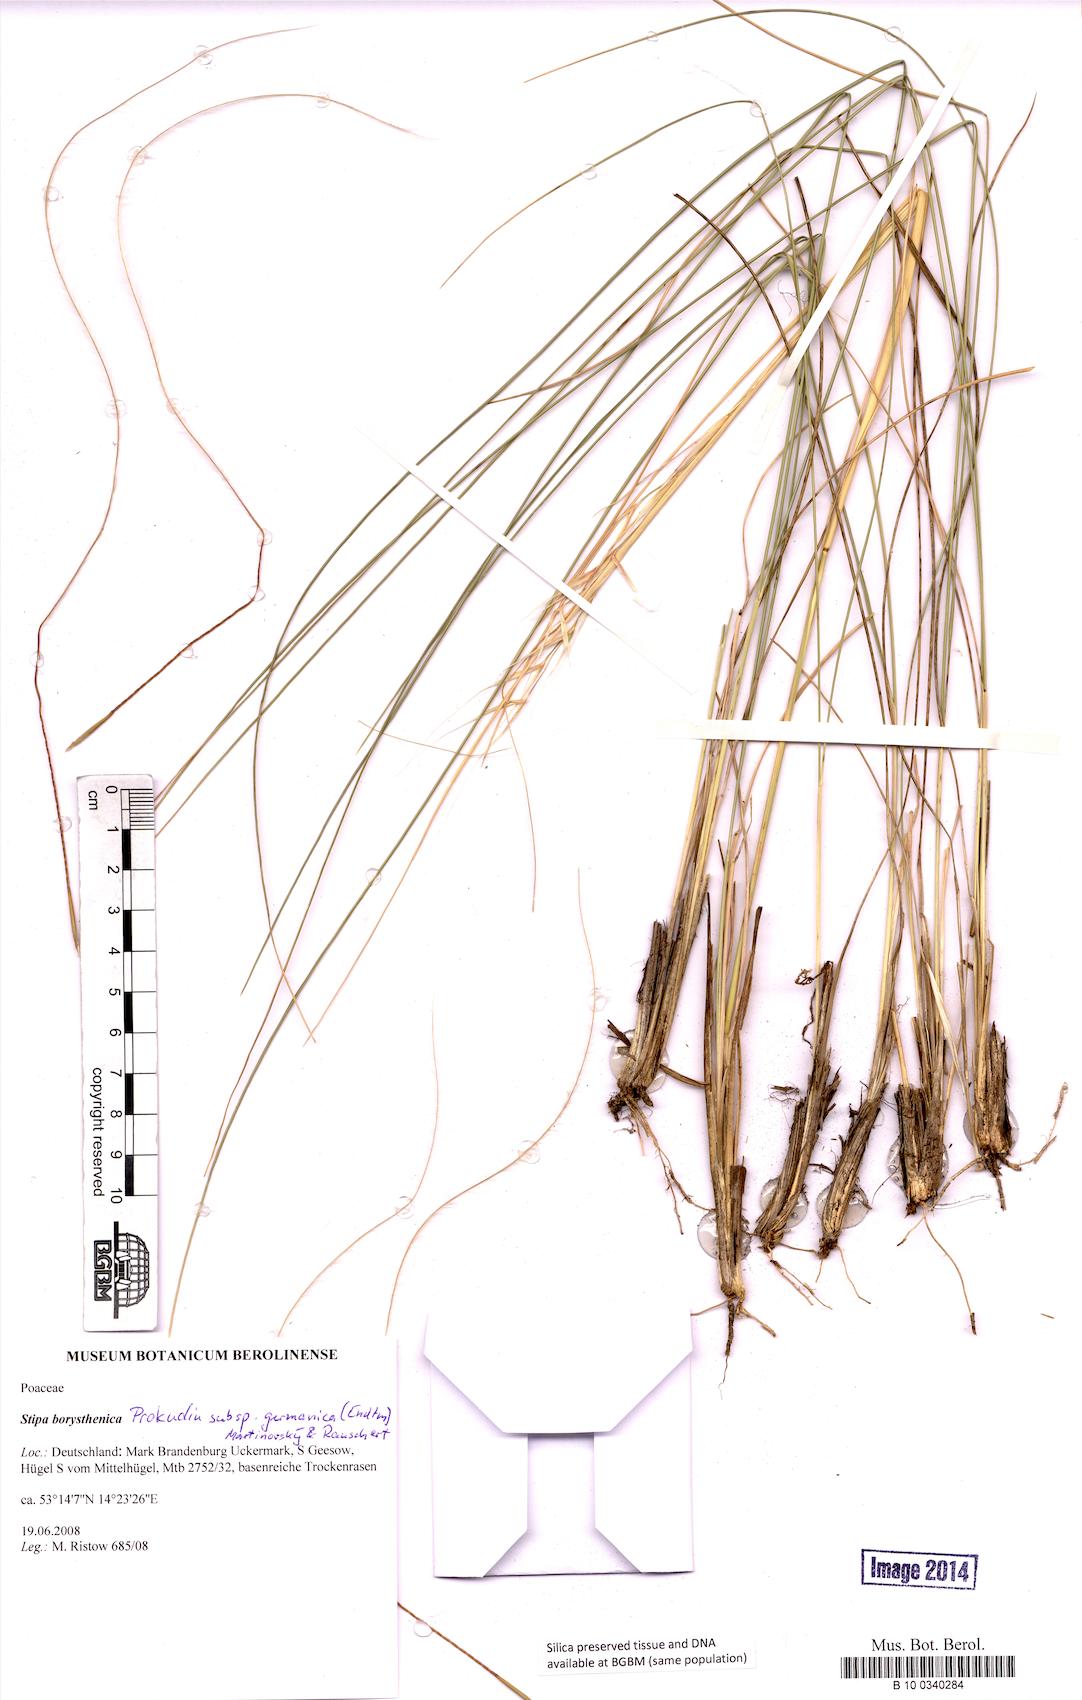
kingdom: Plantae
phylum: Tracheophyta
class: Liliopsida
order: Poales
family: Poaceae
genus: Stipa
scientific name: Stipa borysthenica
